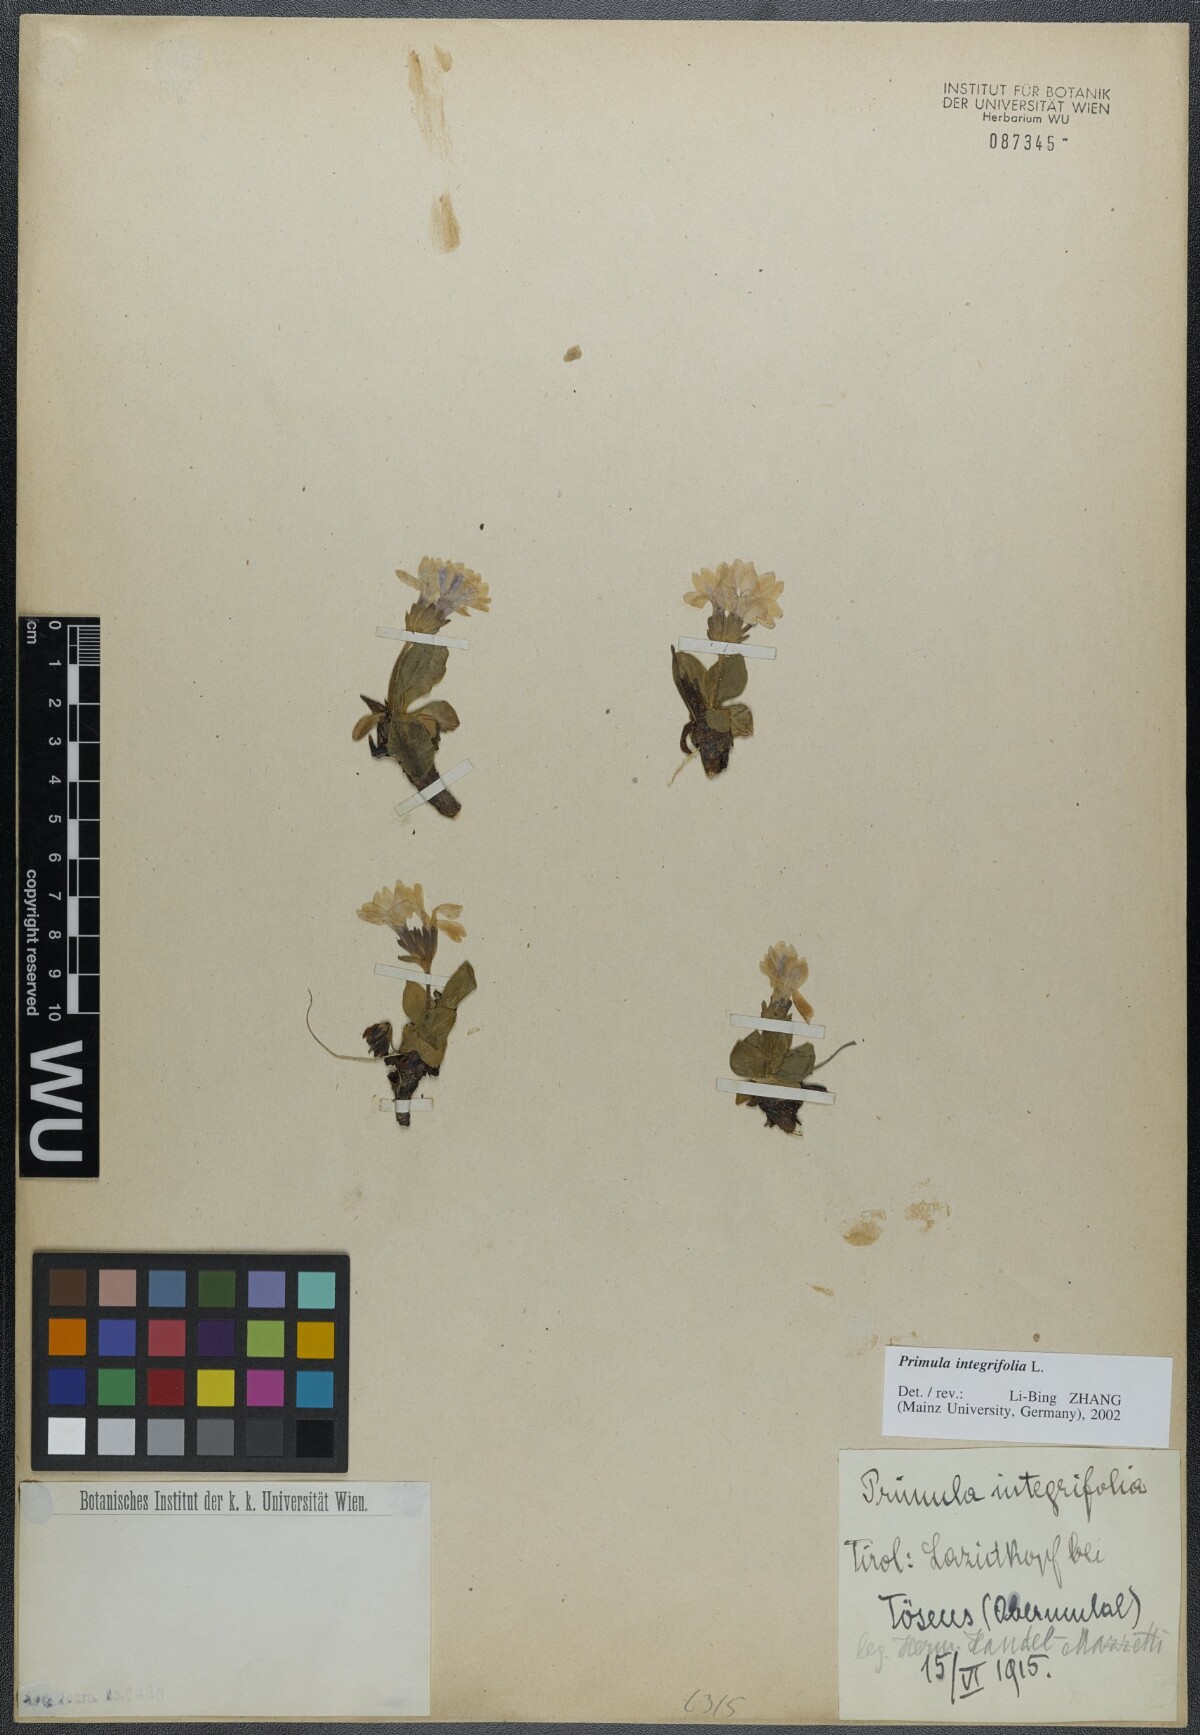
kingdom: Plantae
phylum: Tracheophyta
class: Magnoliopsida
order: Ericales
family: Primulaceae
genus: Primula
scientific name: Primula integrifolia
